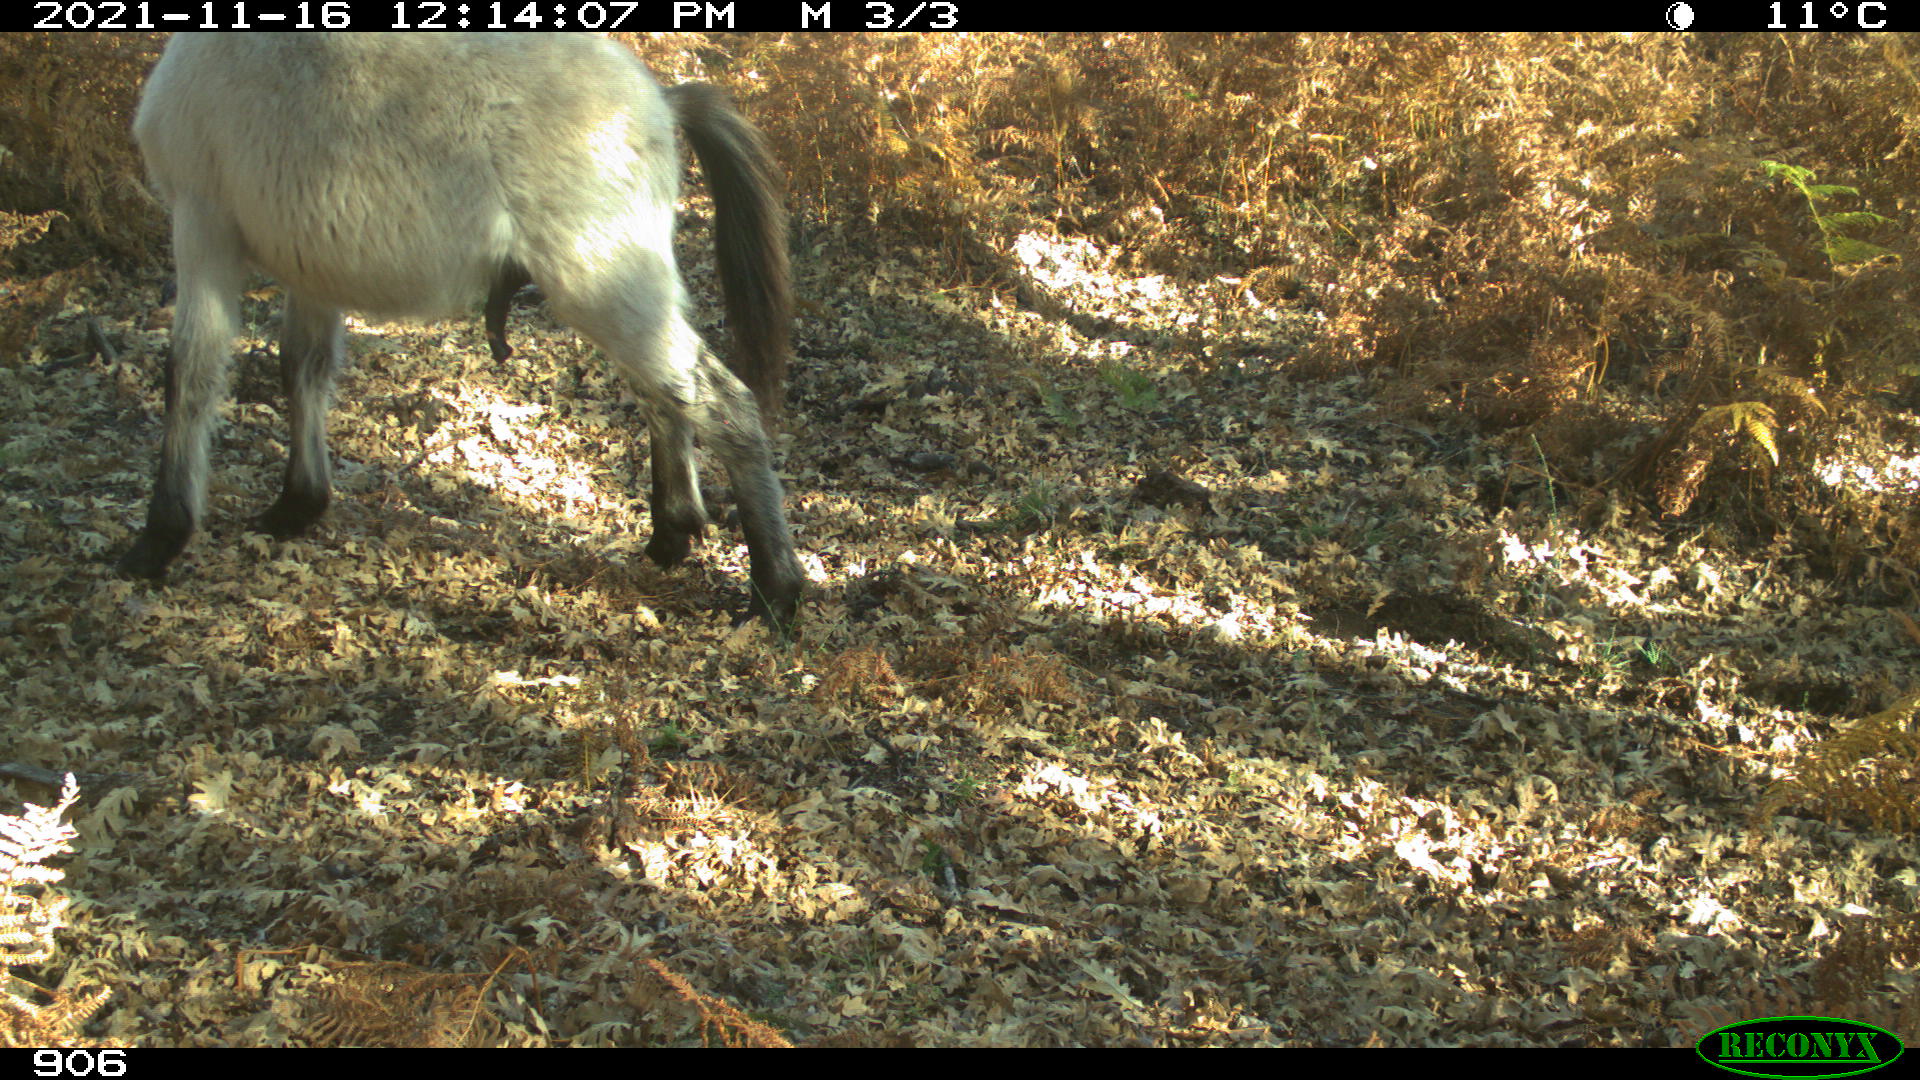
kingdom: Animalia
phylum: Chordata
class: Mammalia
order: Perissodactyla
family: Equidae
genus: Equus
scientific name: Equus caballus
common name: Horse
